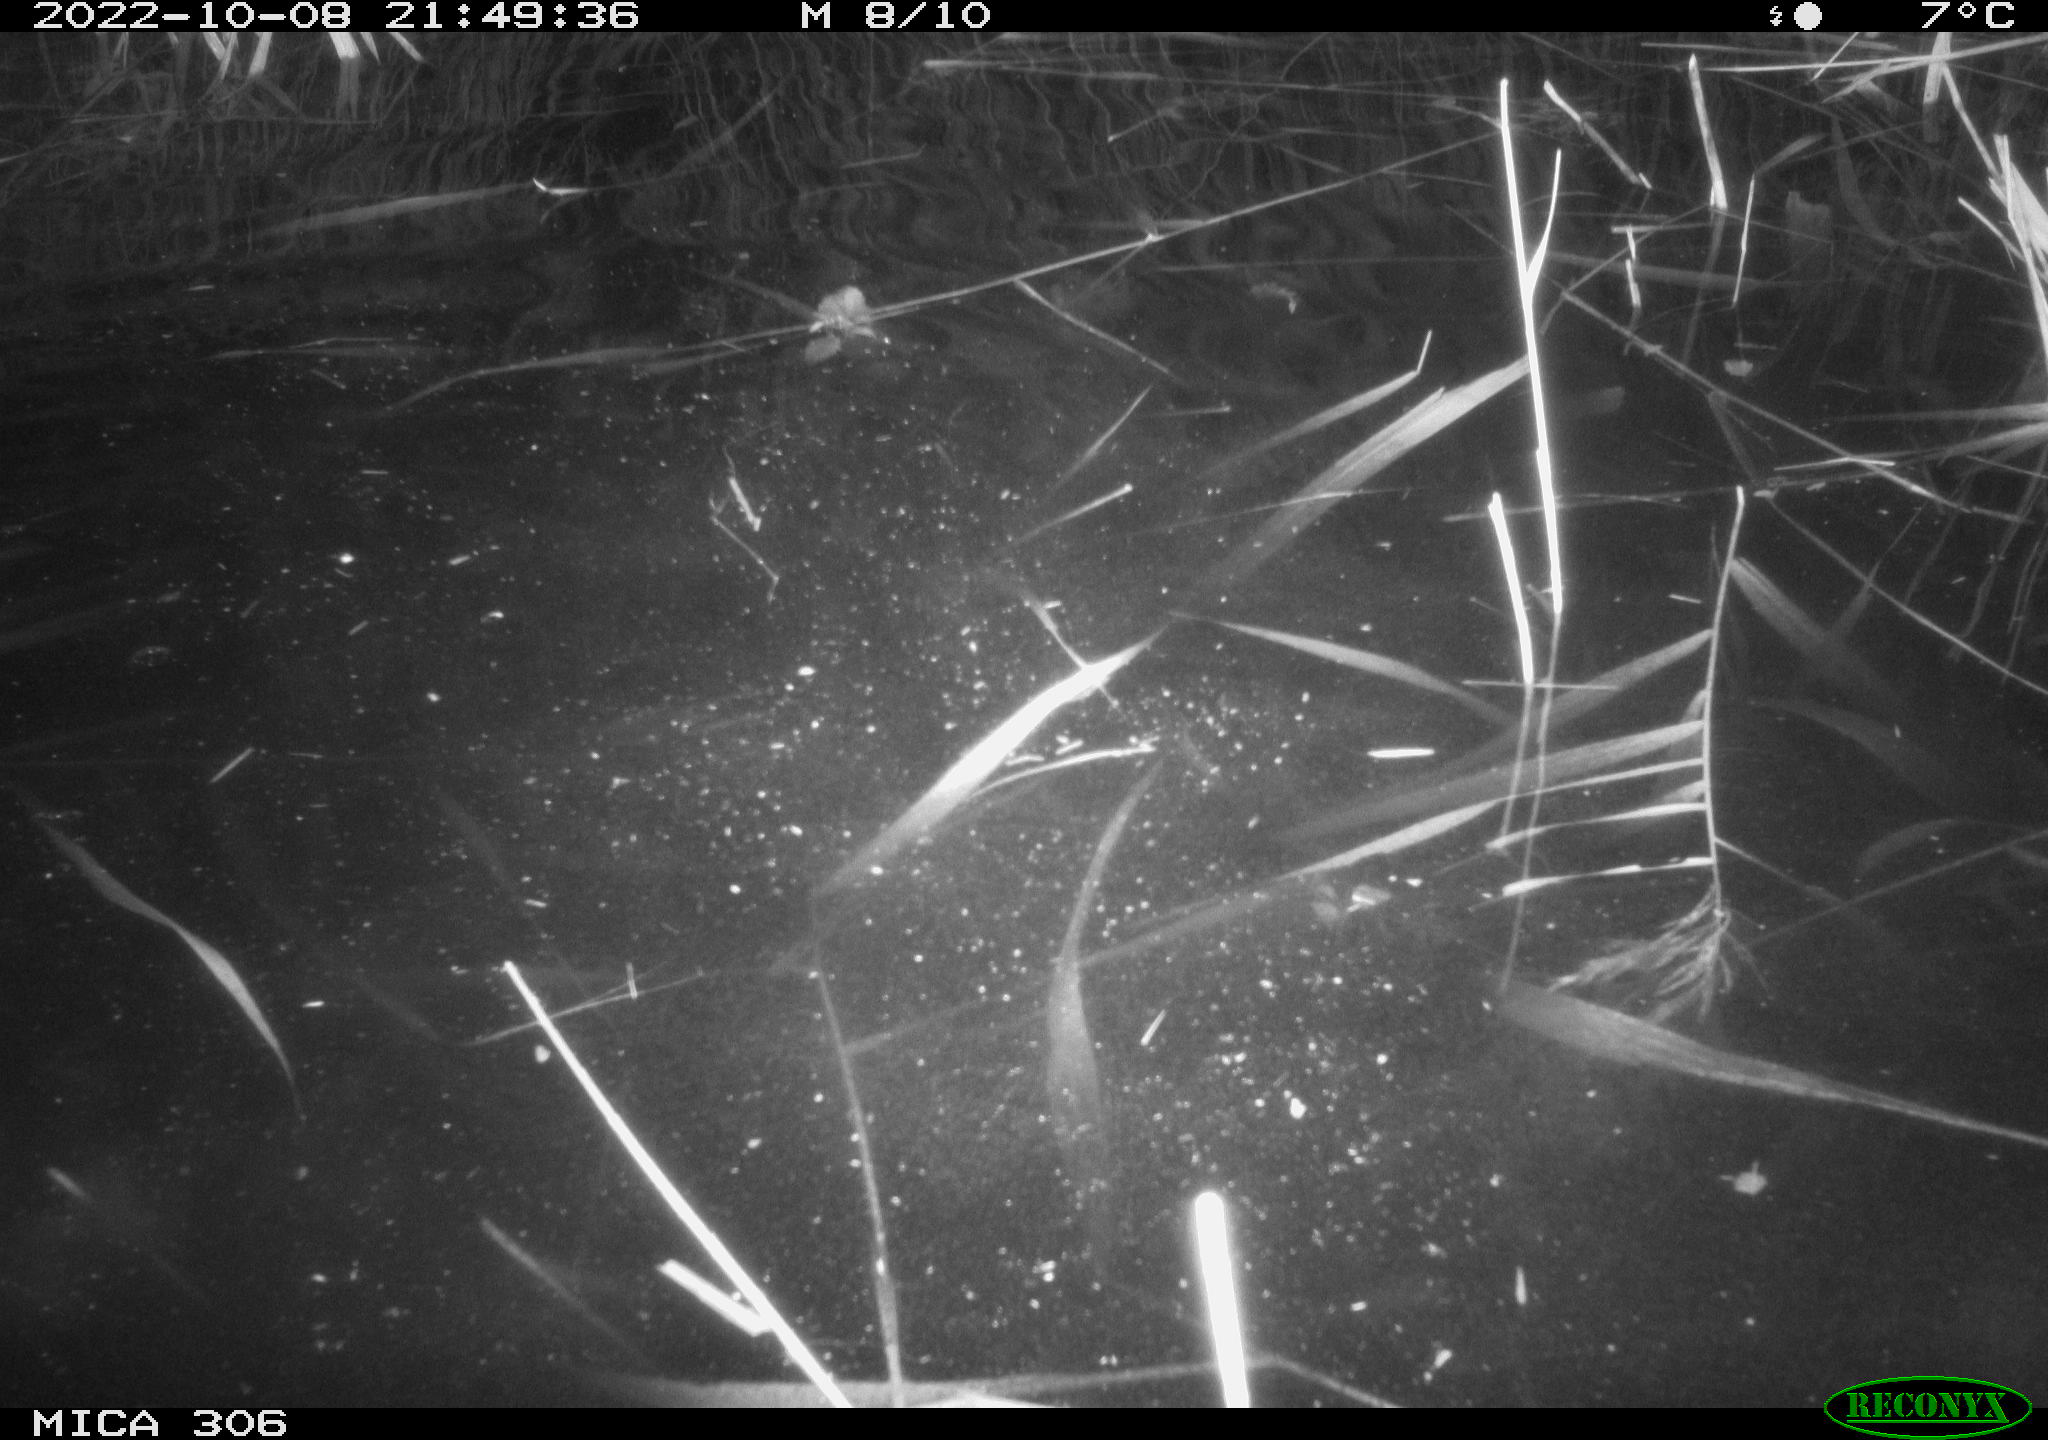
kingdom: Animalia
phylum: Chordata
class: Mammalia
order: Rodentia
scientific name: Rodentia
